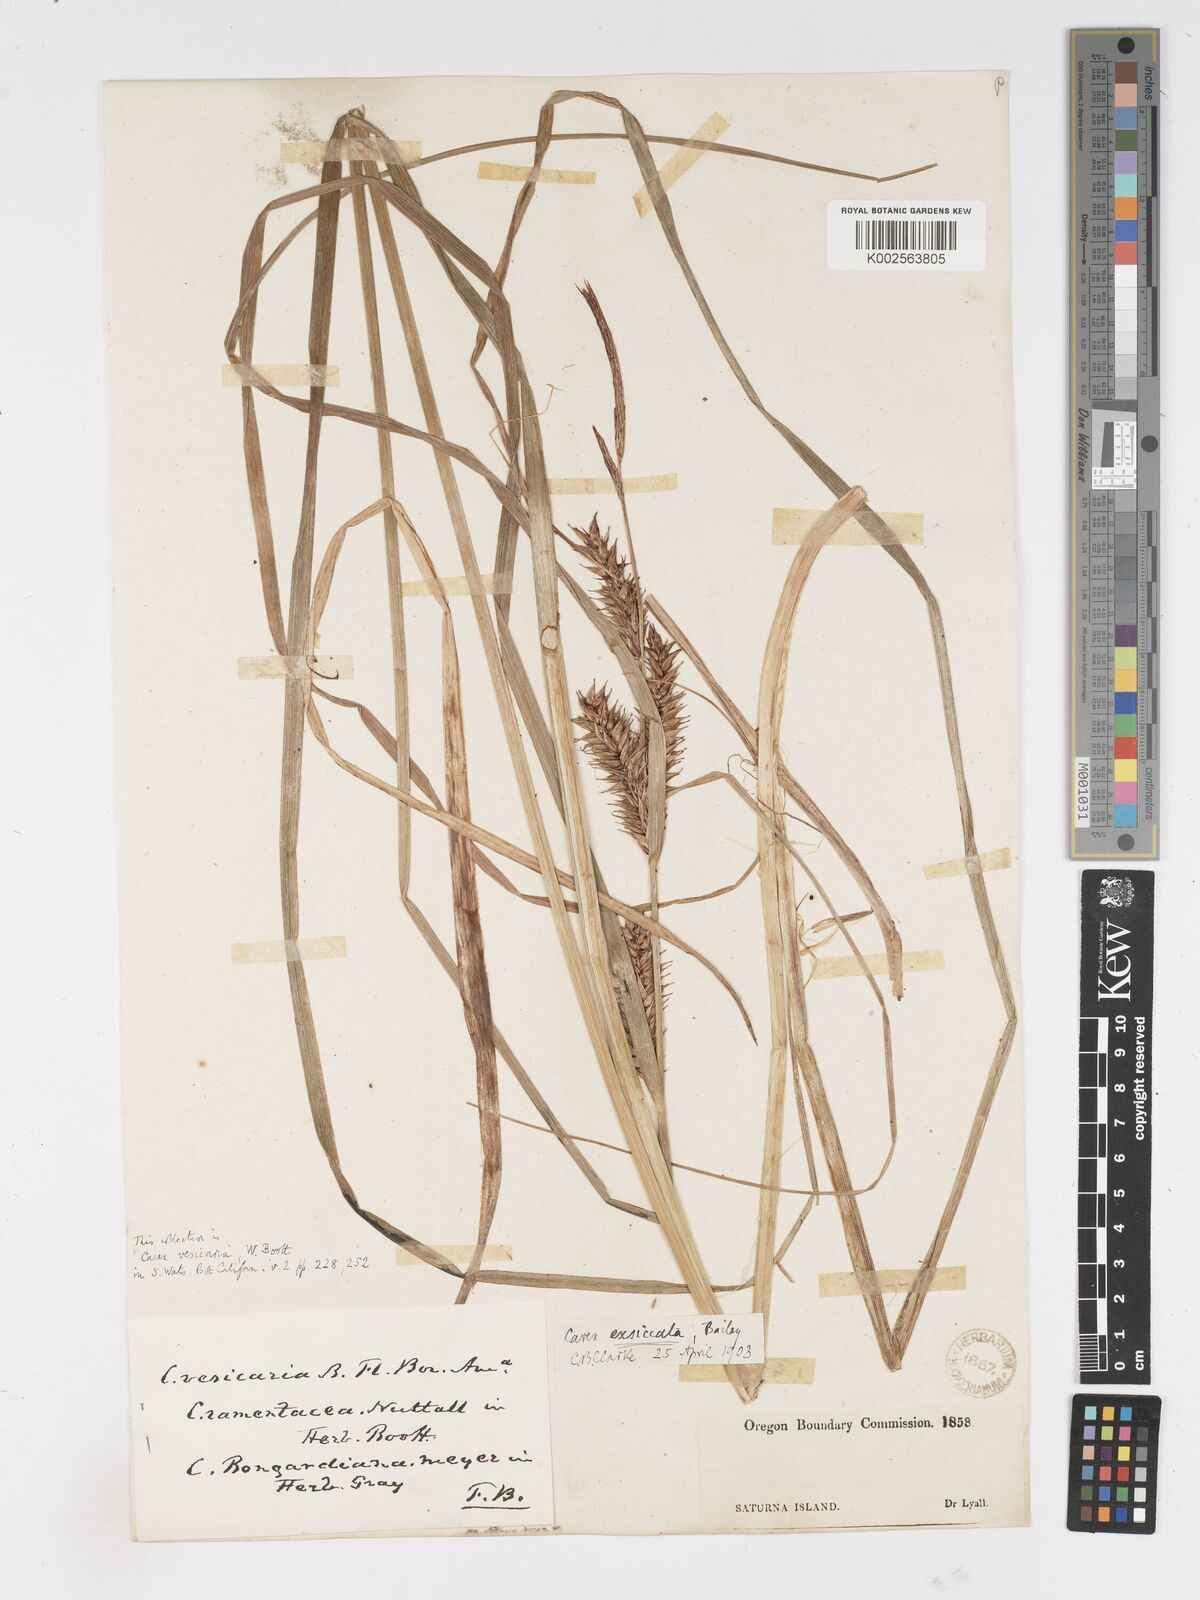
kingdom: Plantae
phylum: Tracheophyta
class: Liliopsida
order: Poales
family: Cyperaceae
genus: Carex
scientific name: Carex exsiccata
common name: Beaked sedge
